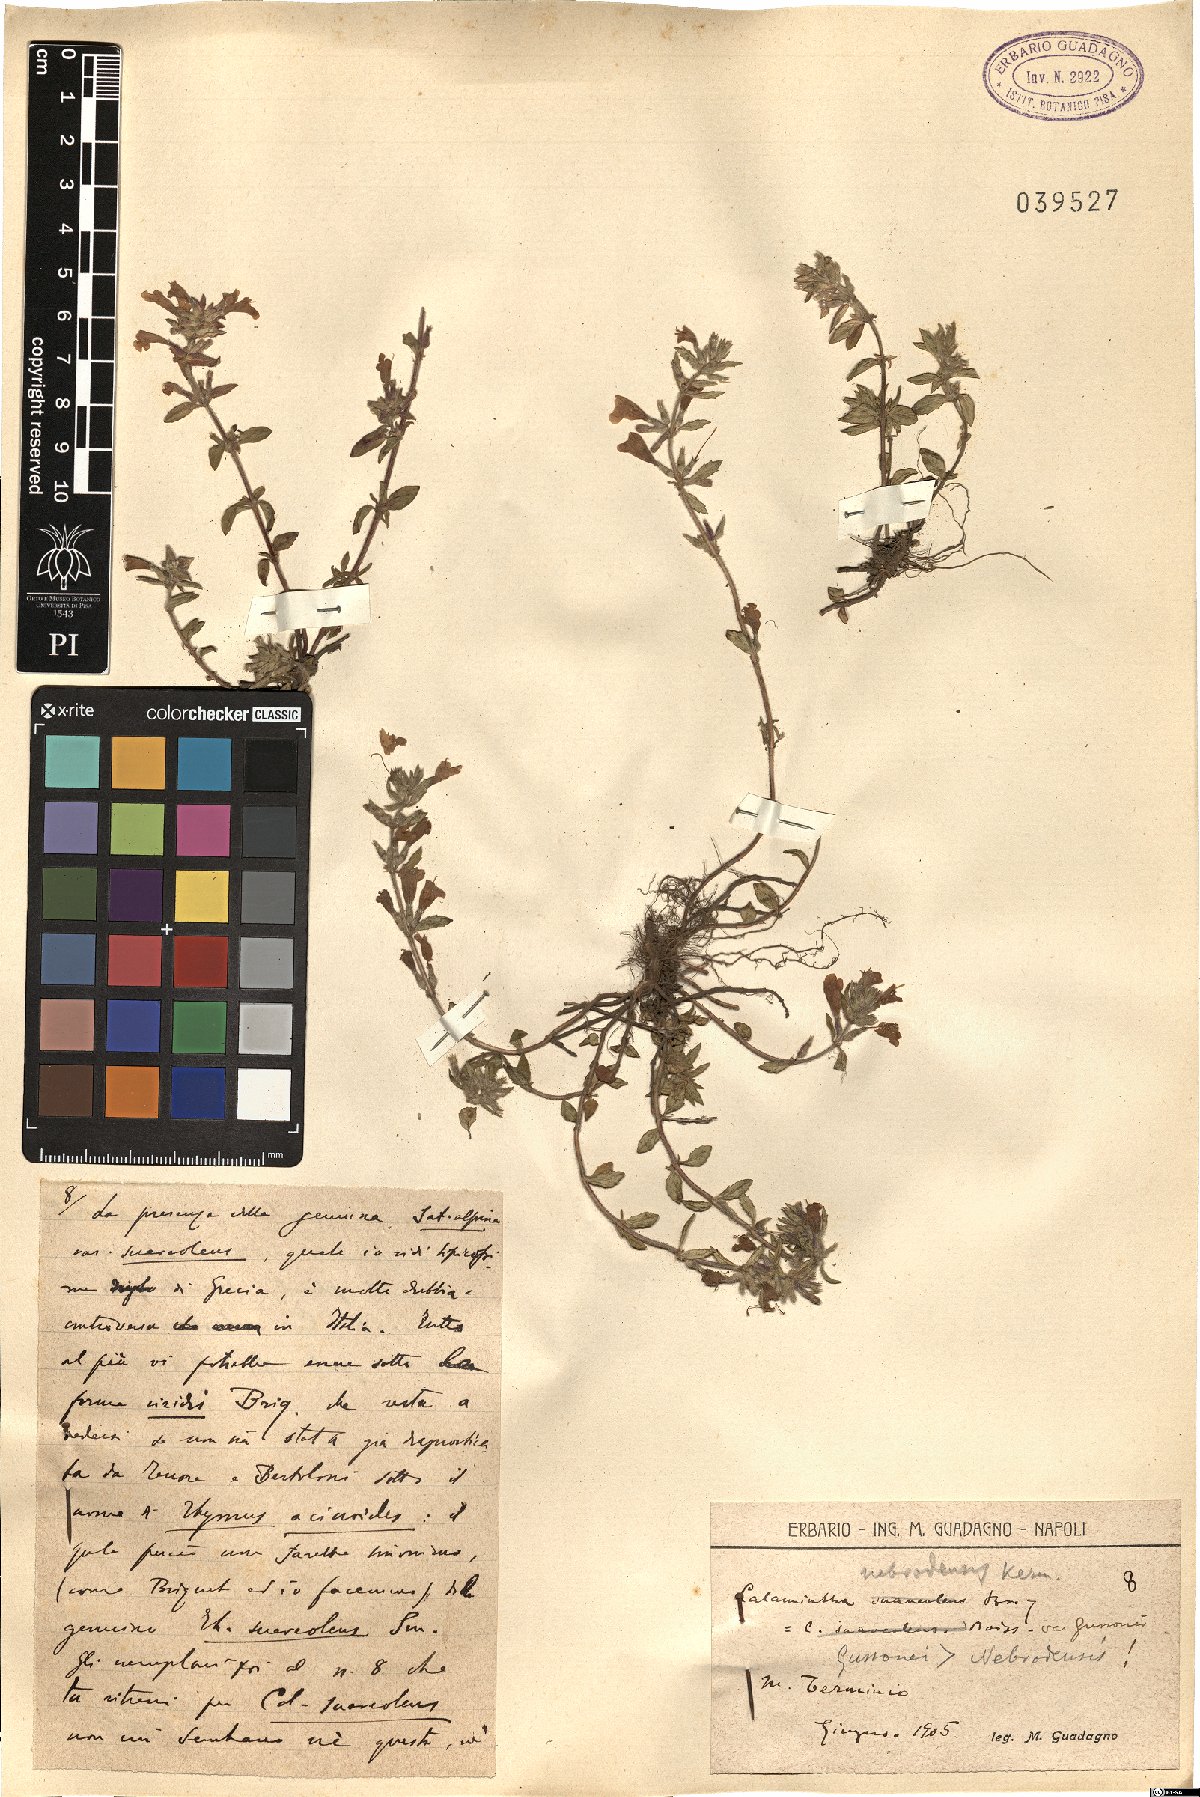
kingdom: Plantae
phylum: Tracheophyta
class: Magnoliopsida
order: Lamiales
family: Lamiaceae
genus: Clinopodium
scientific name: Clinopodium alpinum
